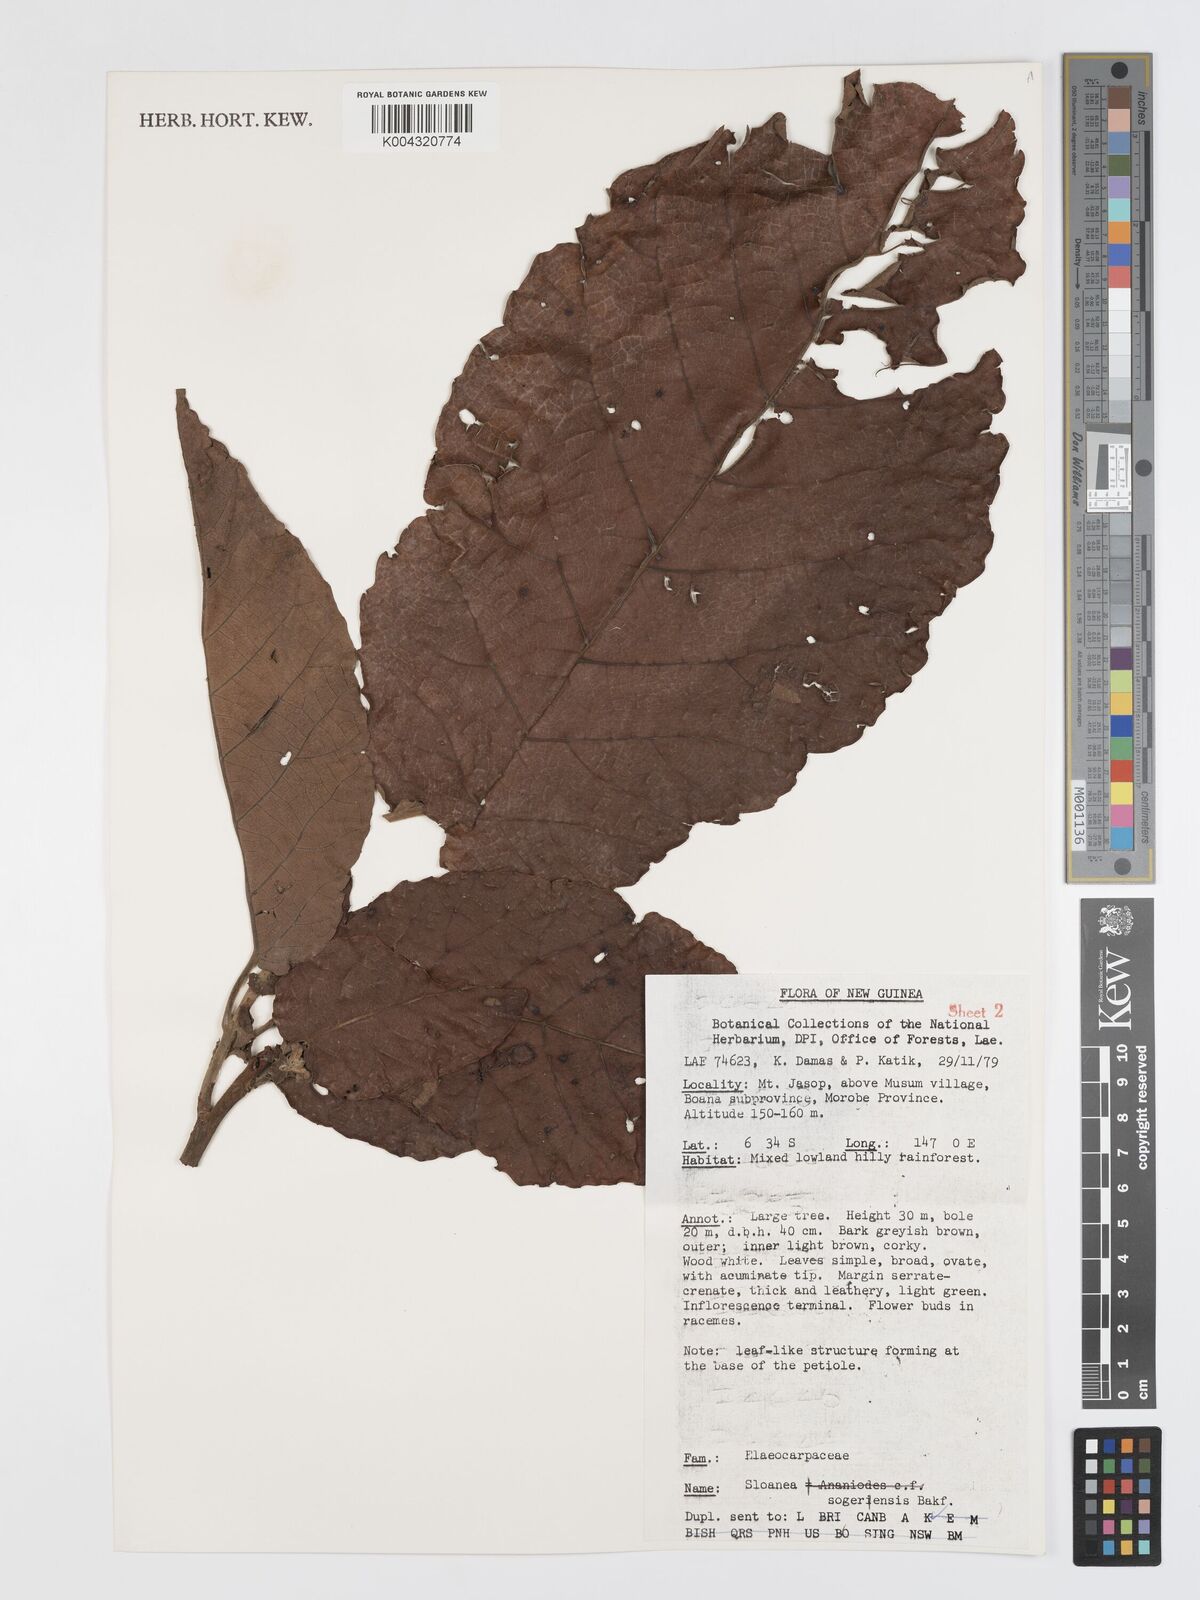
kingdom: Plantae
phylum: Tracheophyta
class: Magnoliopsida
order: Oxalidales
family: Elaeocarpaceae
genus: Sloanea
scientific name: Sloanea sogerensis
